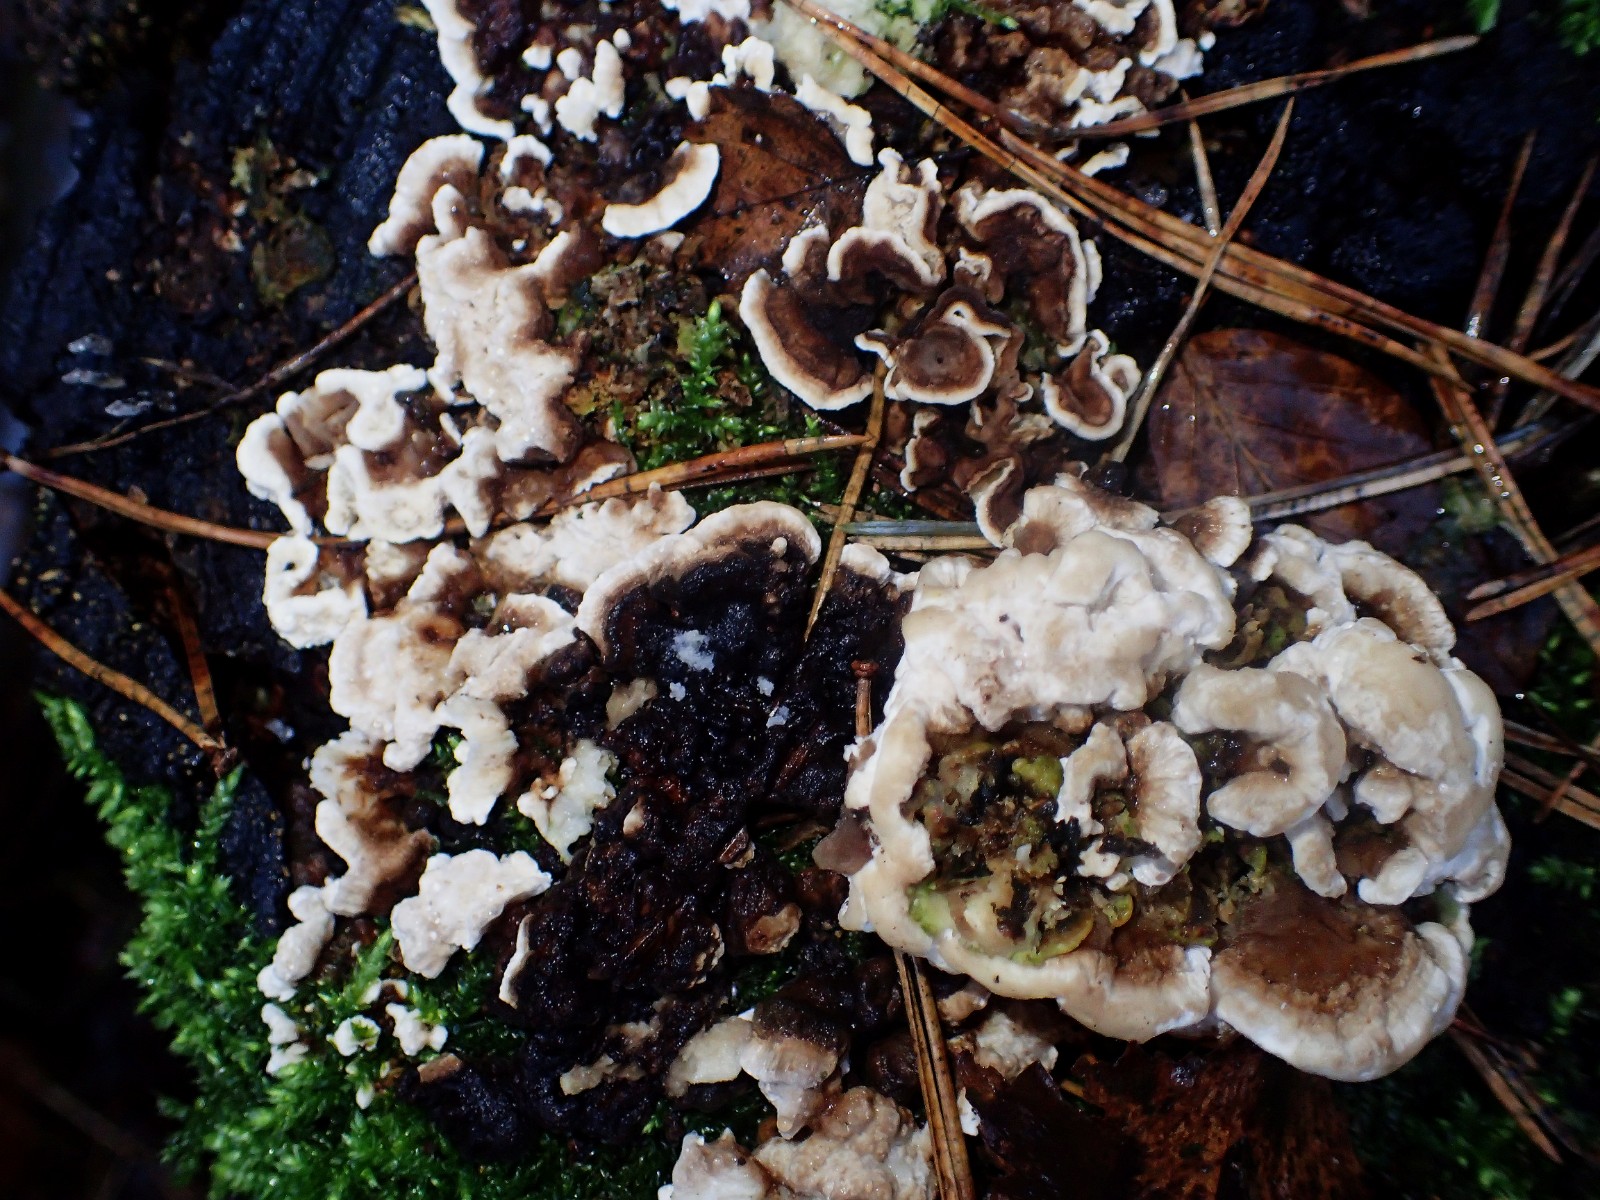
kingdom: Fungi
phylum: Basidiomycota
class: Agaricomycetes
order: Russulales
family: Bondarzewiaceae
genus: Heterobasidion
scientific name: Heterobasidion annosum
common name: almindelig rodfordærver
